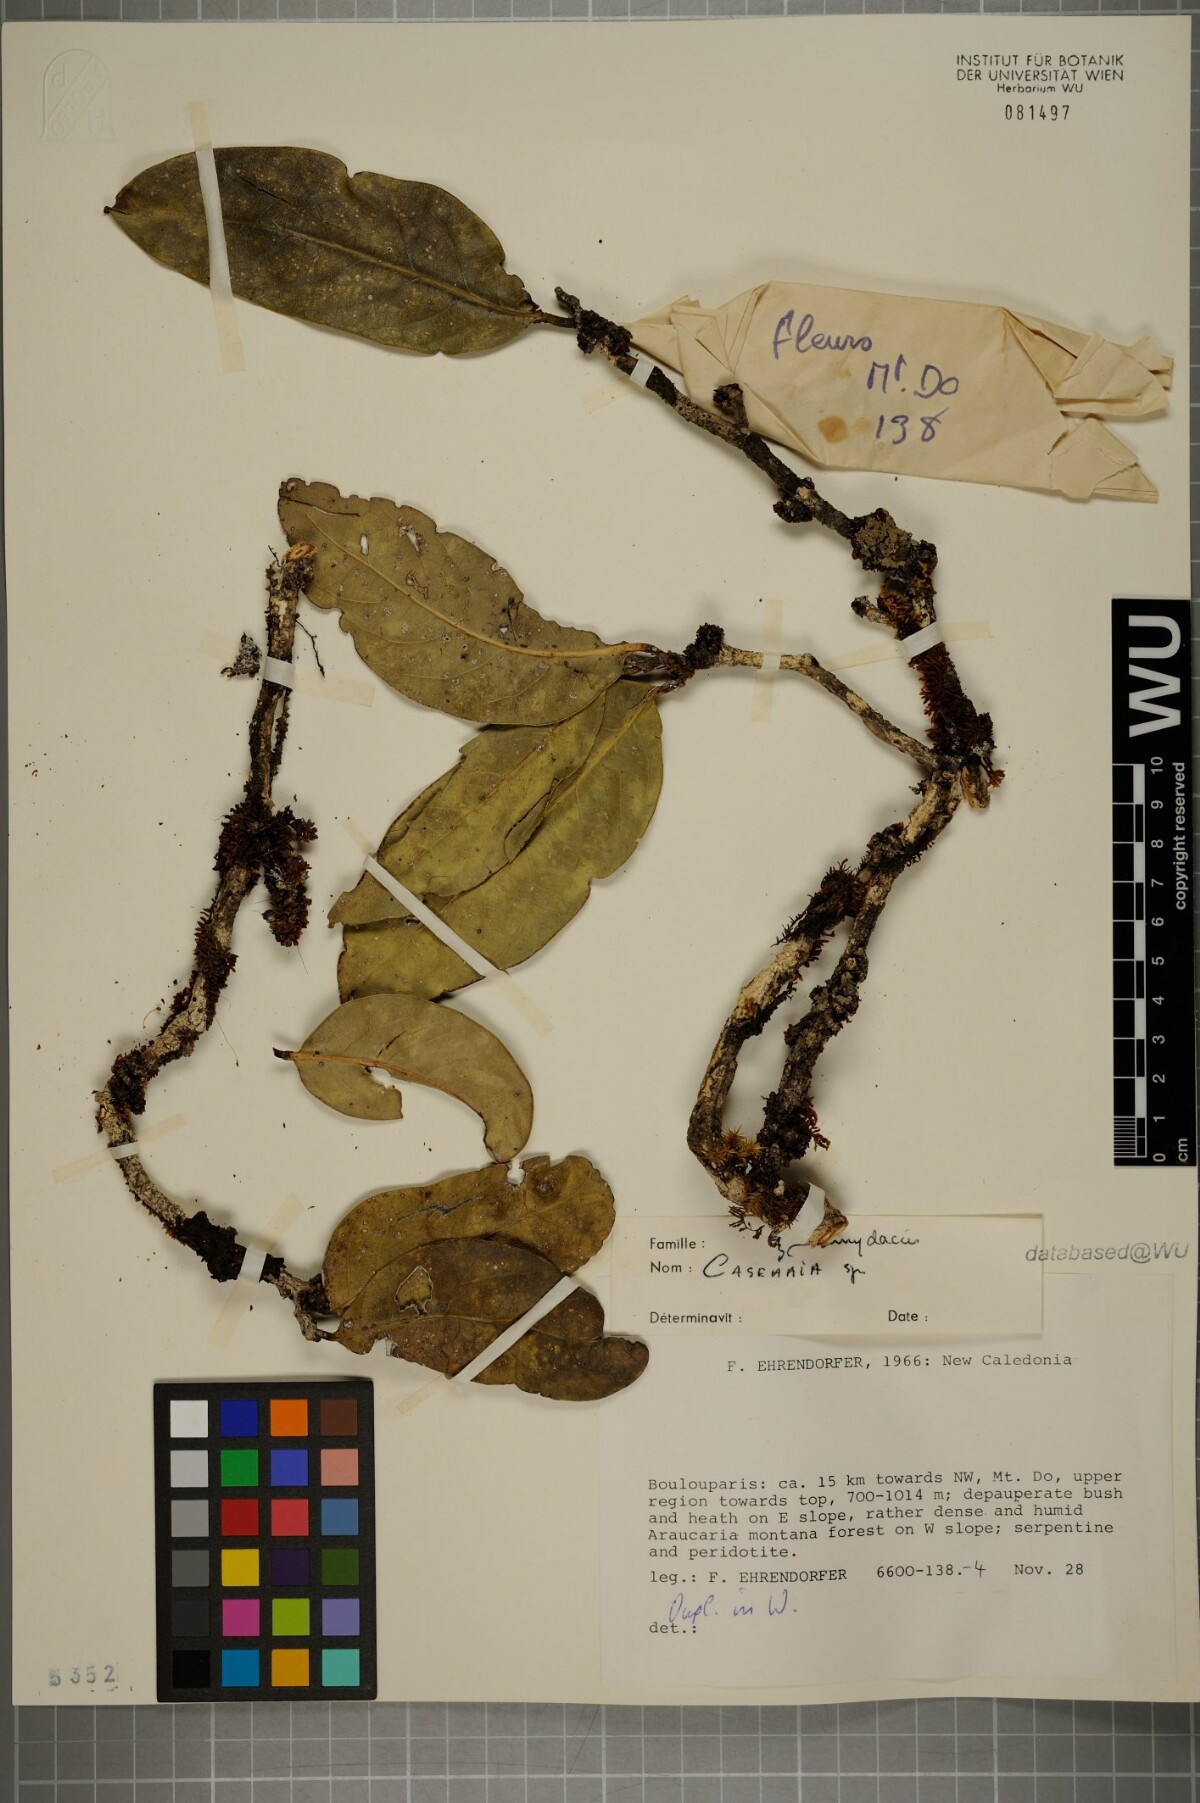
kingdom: Plantae
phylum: Tracheophyta
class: Magnoliopsida
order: Malpighiales
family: Salicaceae
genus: Casearia
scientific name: Casearia
